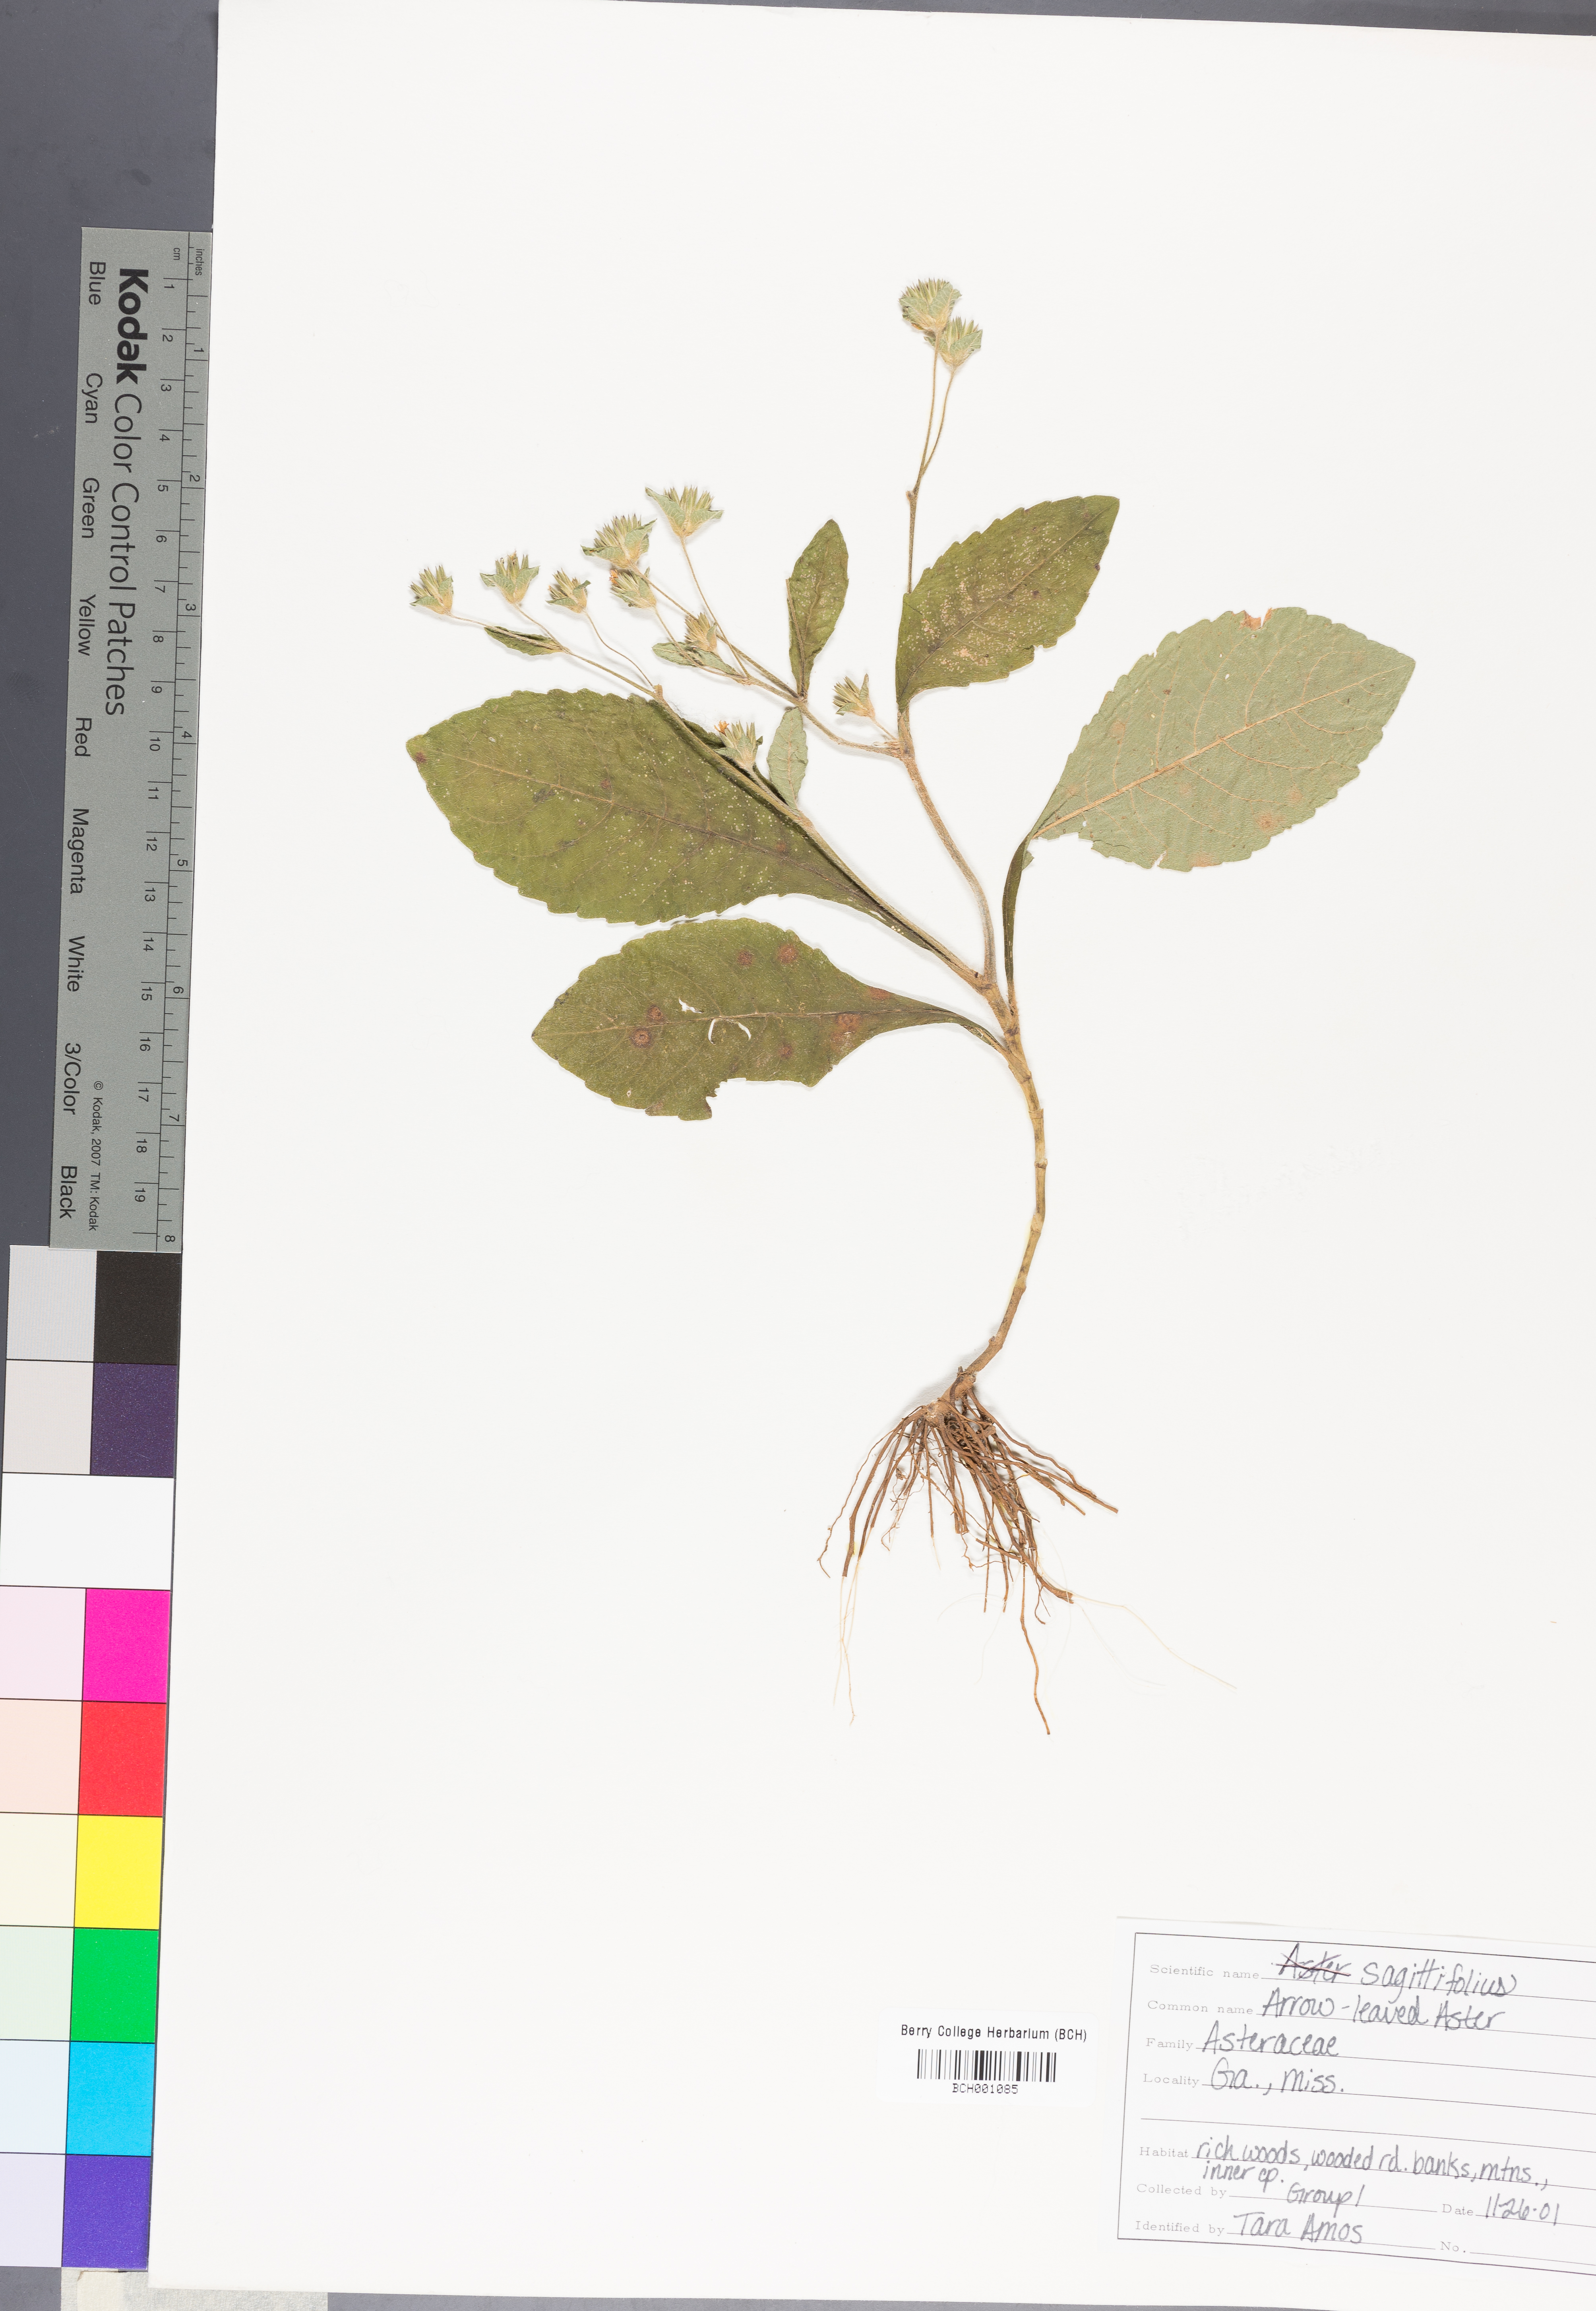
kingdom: Plantae
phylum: Tracheophyta
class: Magnoliopsida
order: Asterales
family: Asteraceae
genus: Symphyotrichum
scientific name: Symphyotrichum urophyllum
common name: Arrow-leaved aster
